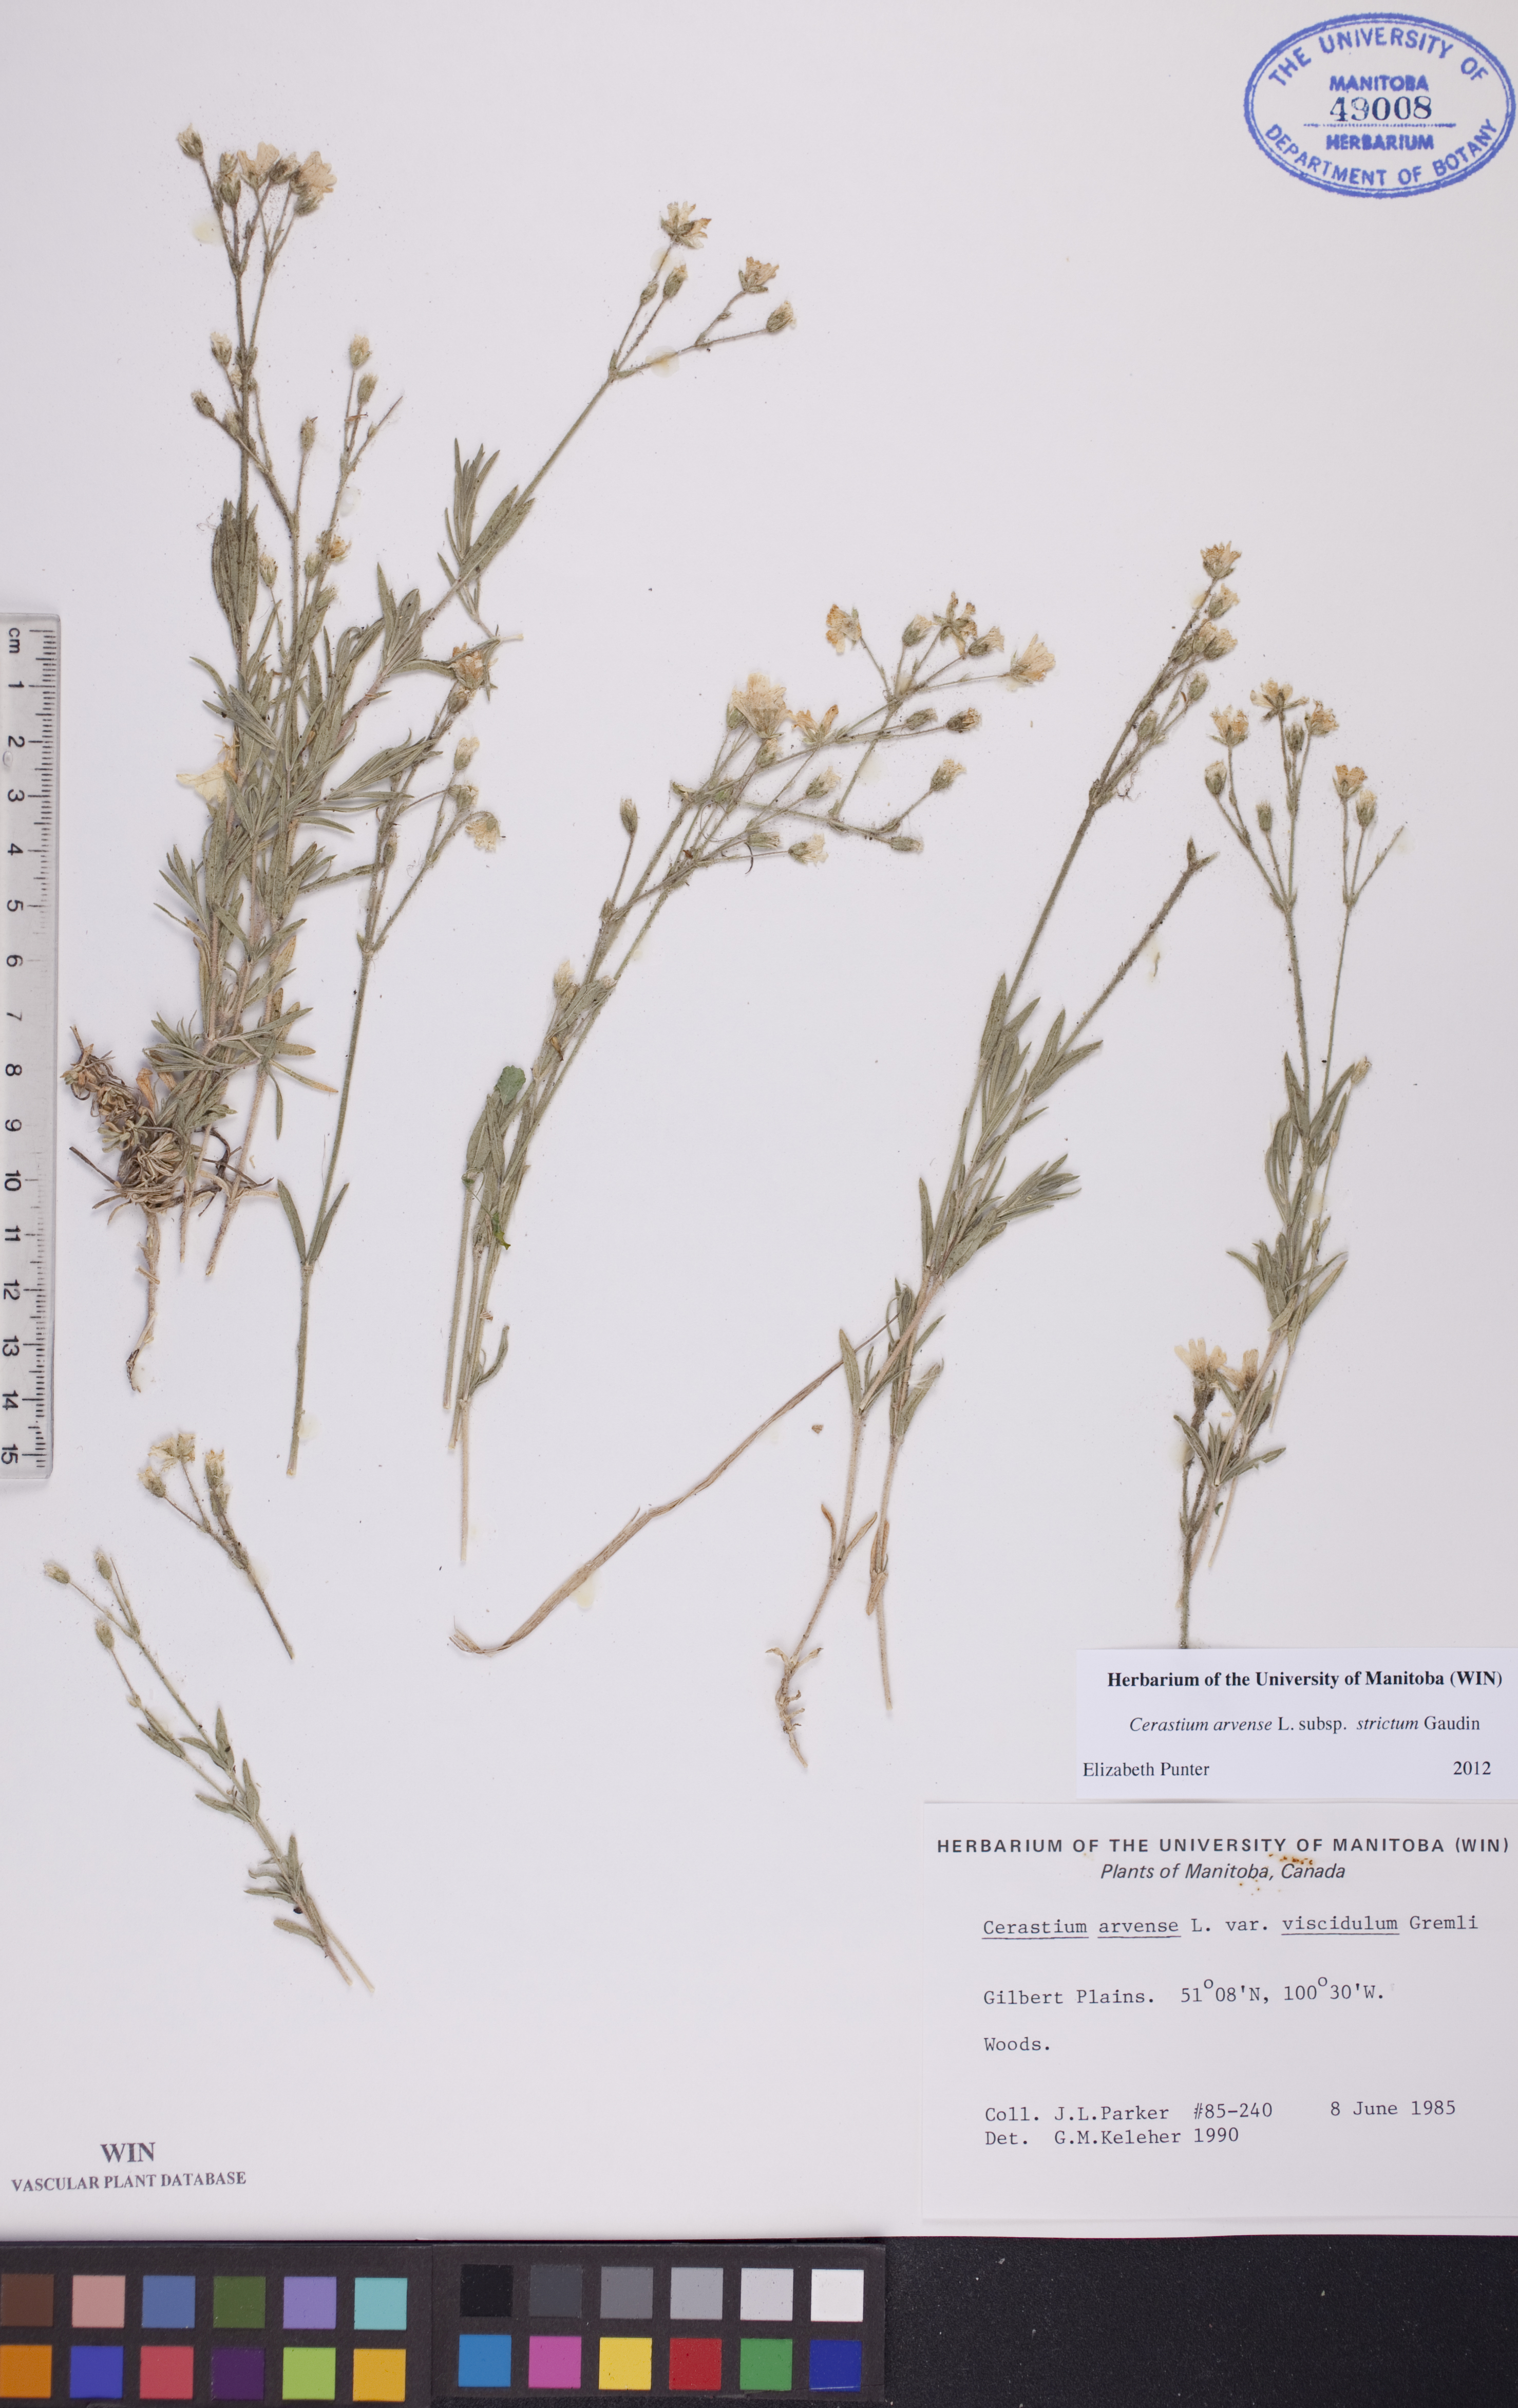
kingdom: Plantae
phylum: Tracheophyta
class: Magnoliopsida
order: Caryophyllales
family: Caryophyllaceae
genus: Cerastium
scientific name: Cerastium elongatum
